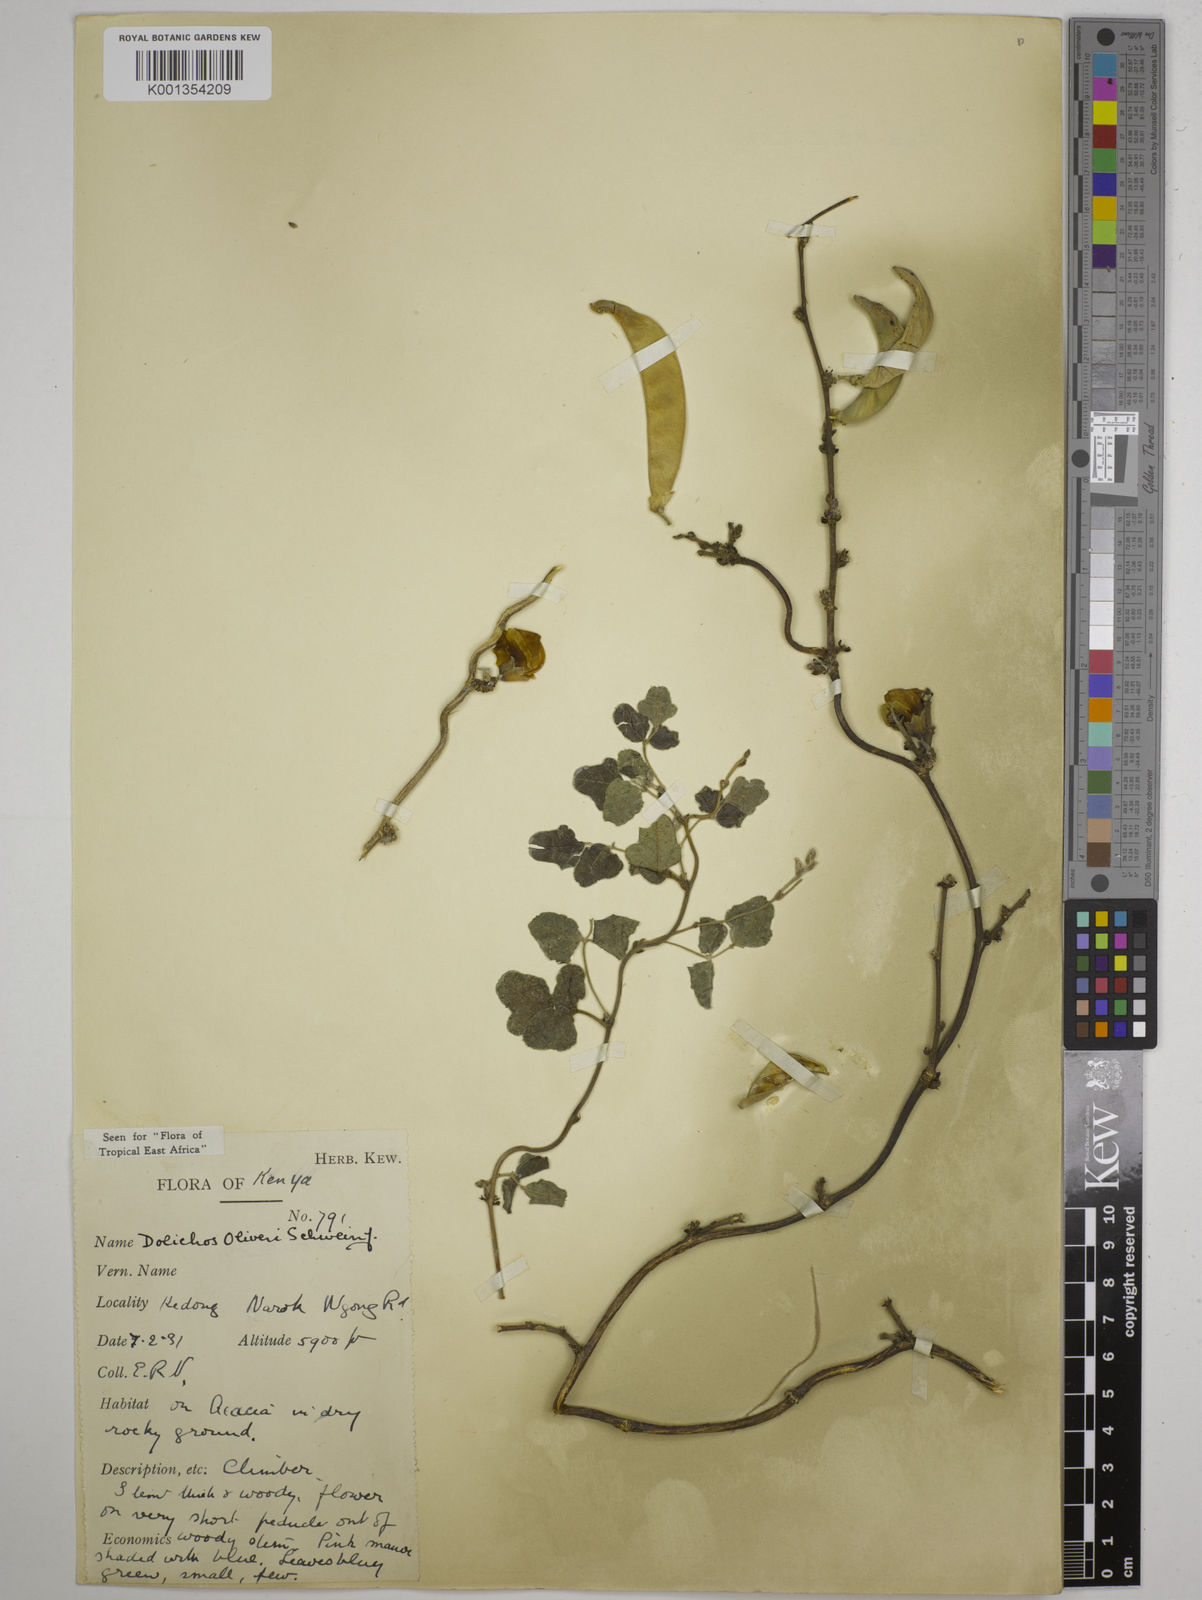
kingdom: Plantae
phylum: Tracheophyta
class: Magnoliopsida
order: Fabales
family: Fabaceae
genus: Dolichos
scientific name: Dolichos
